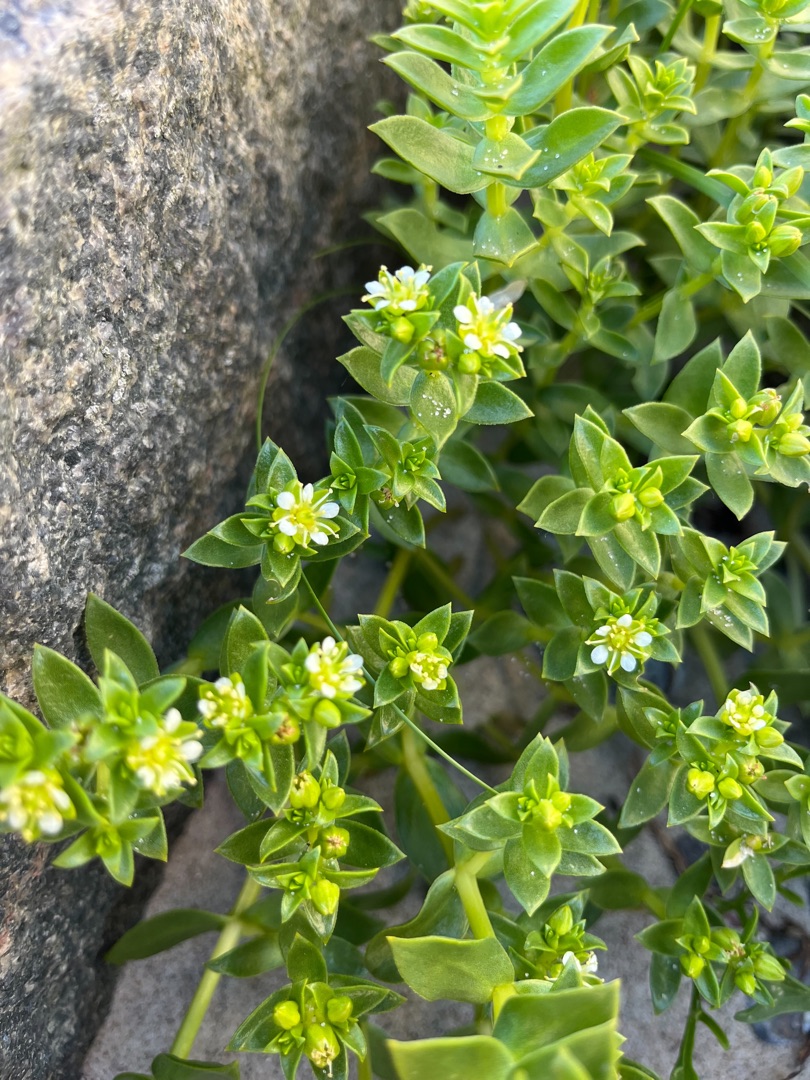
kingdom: Plantae
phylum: Tracheophyta
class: Magnoliopsida
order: Caryophyllales
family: Caryophyllaceae
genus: Honckenya
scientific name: Honckenya peploides
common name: Strandarve
